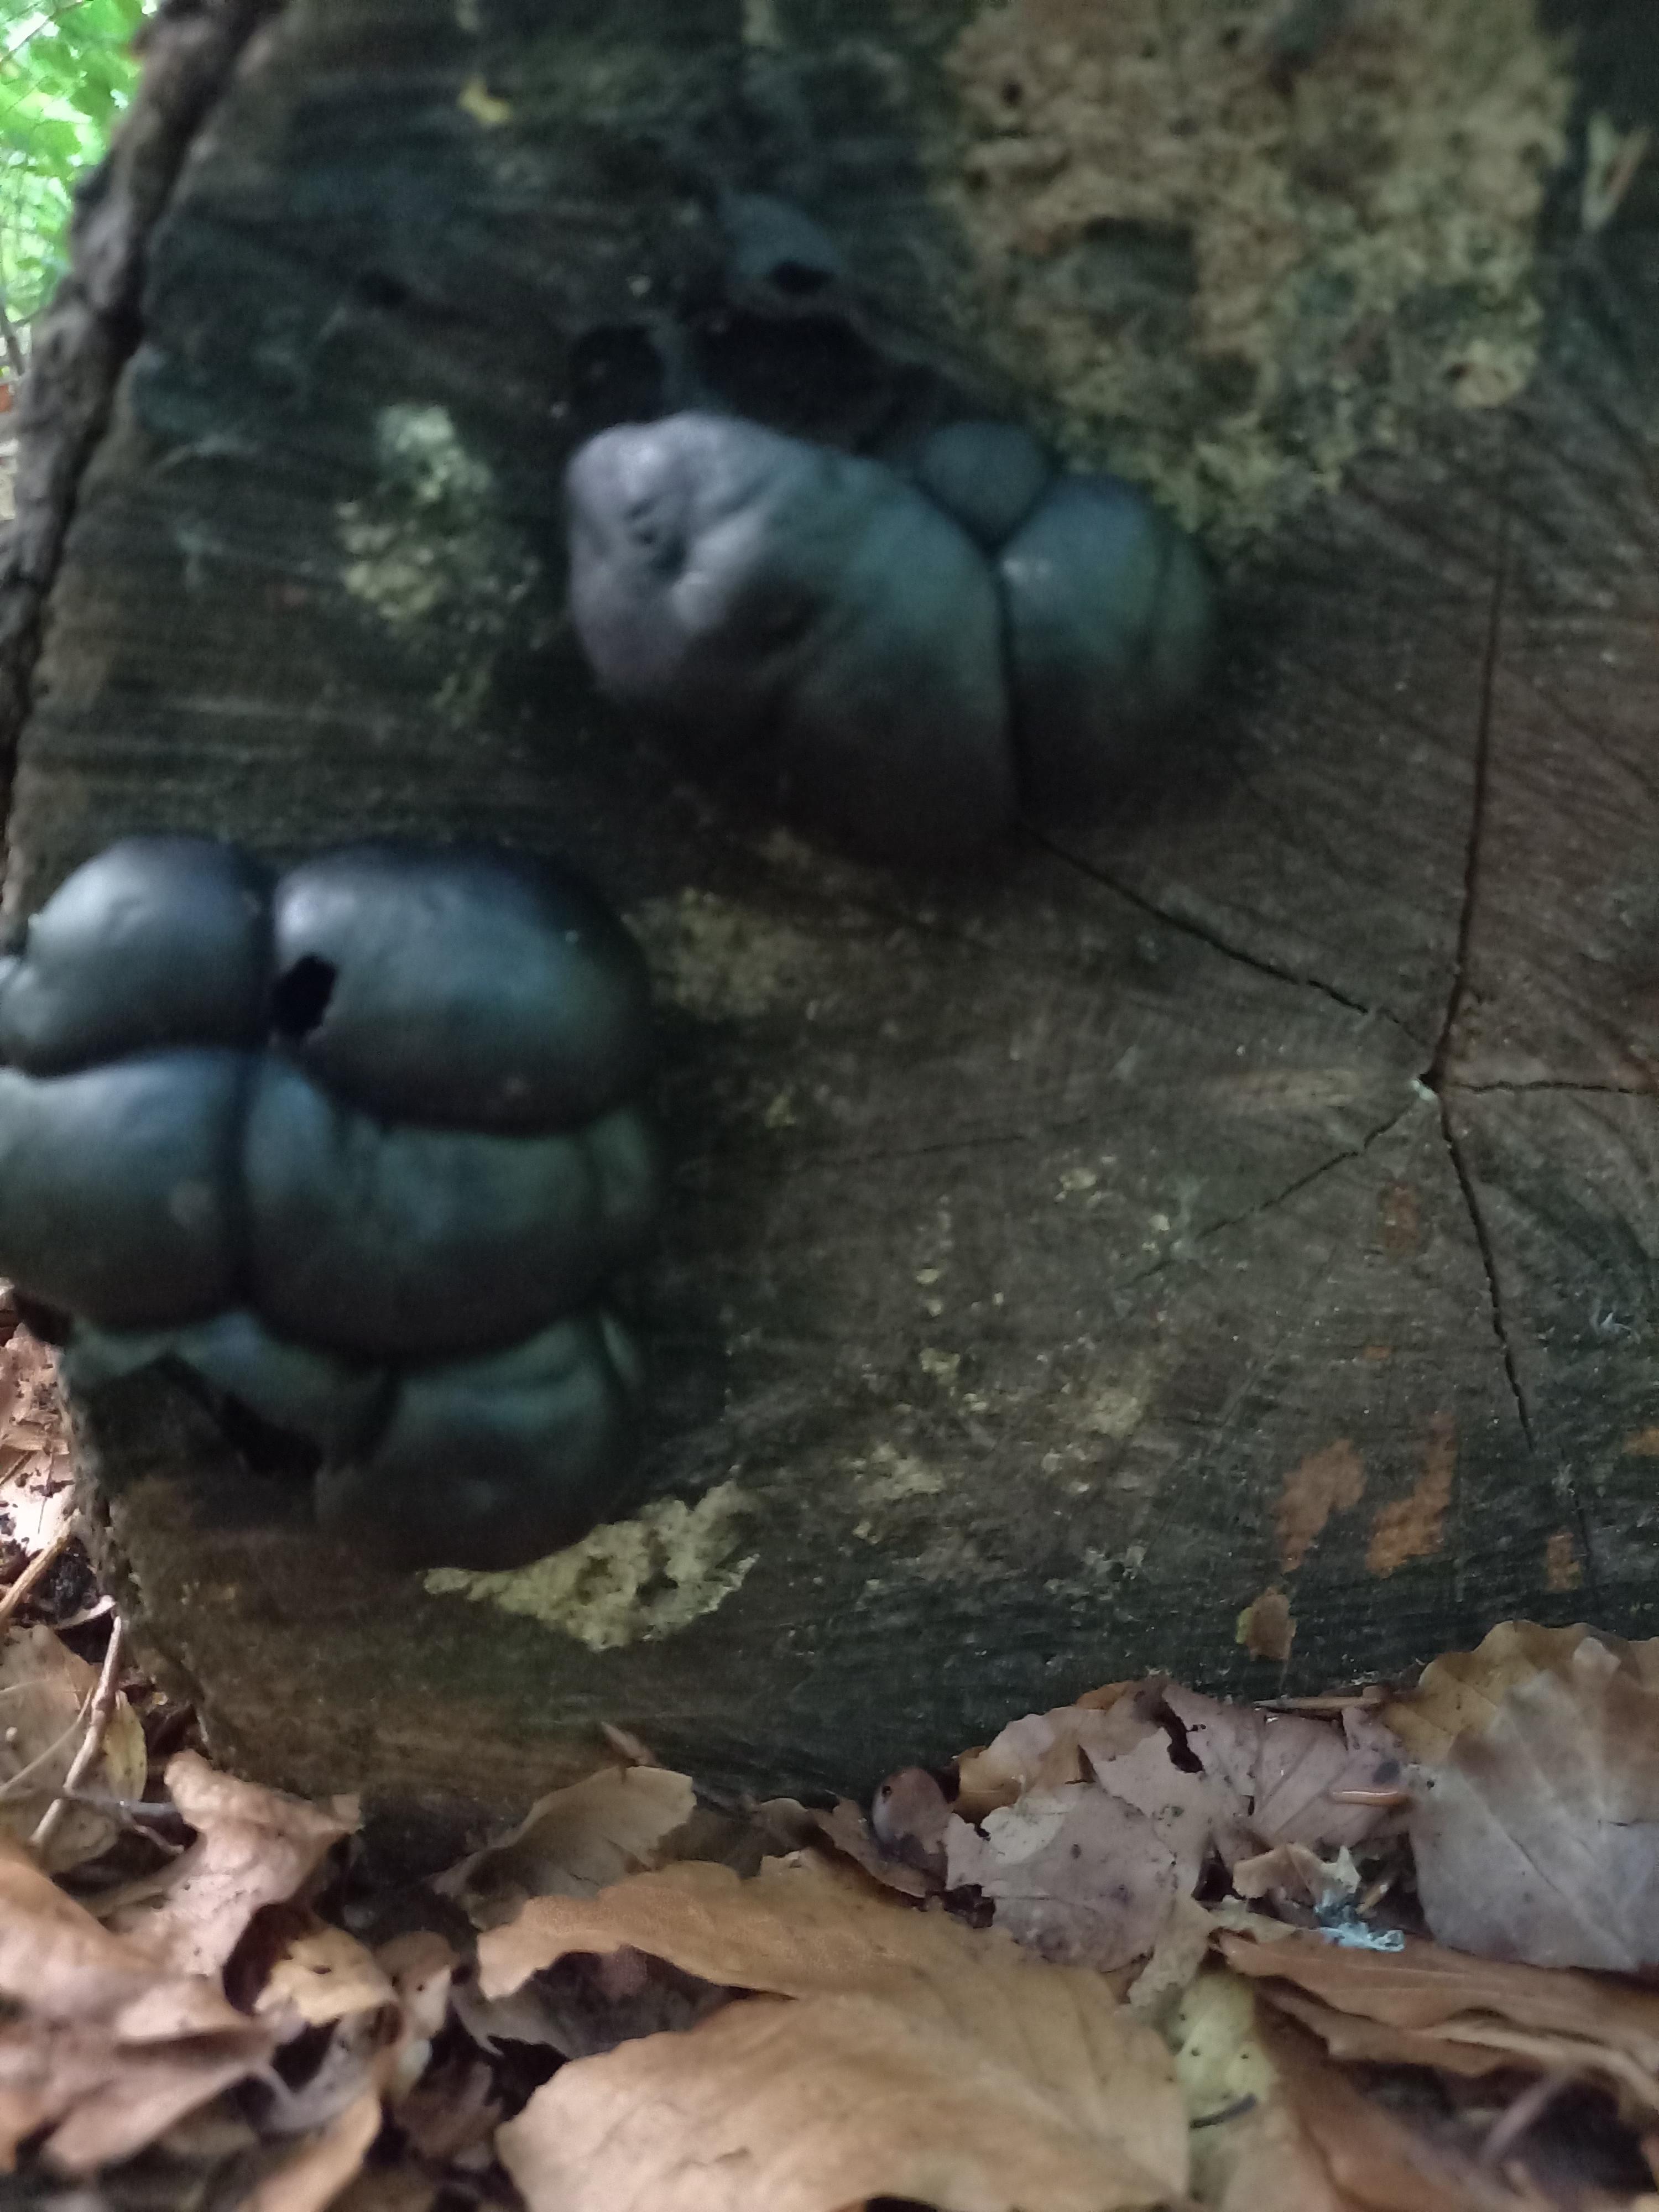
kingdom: Fungi
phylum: Ascomycota
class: Sordariomycetes
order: Xylariales
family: Hypoxylaceae
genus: Daldinia
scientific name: Daldinia concentrica
